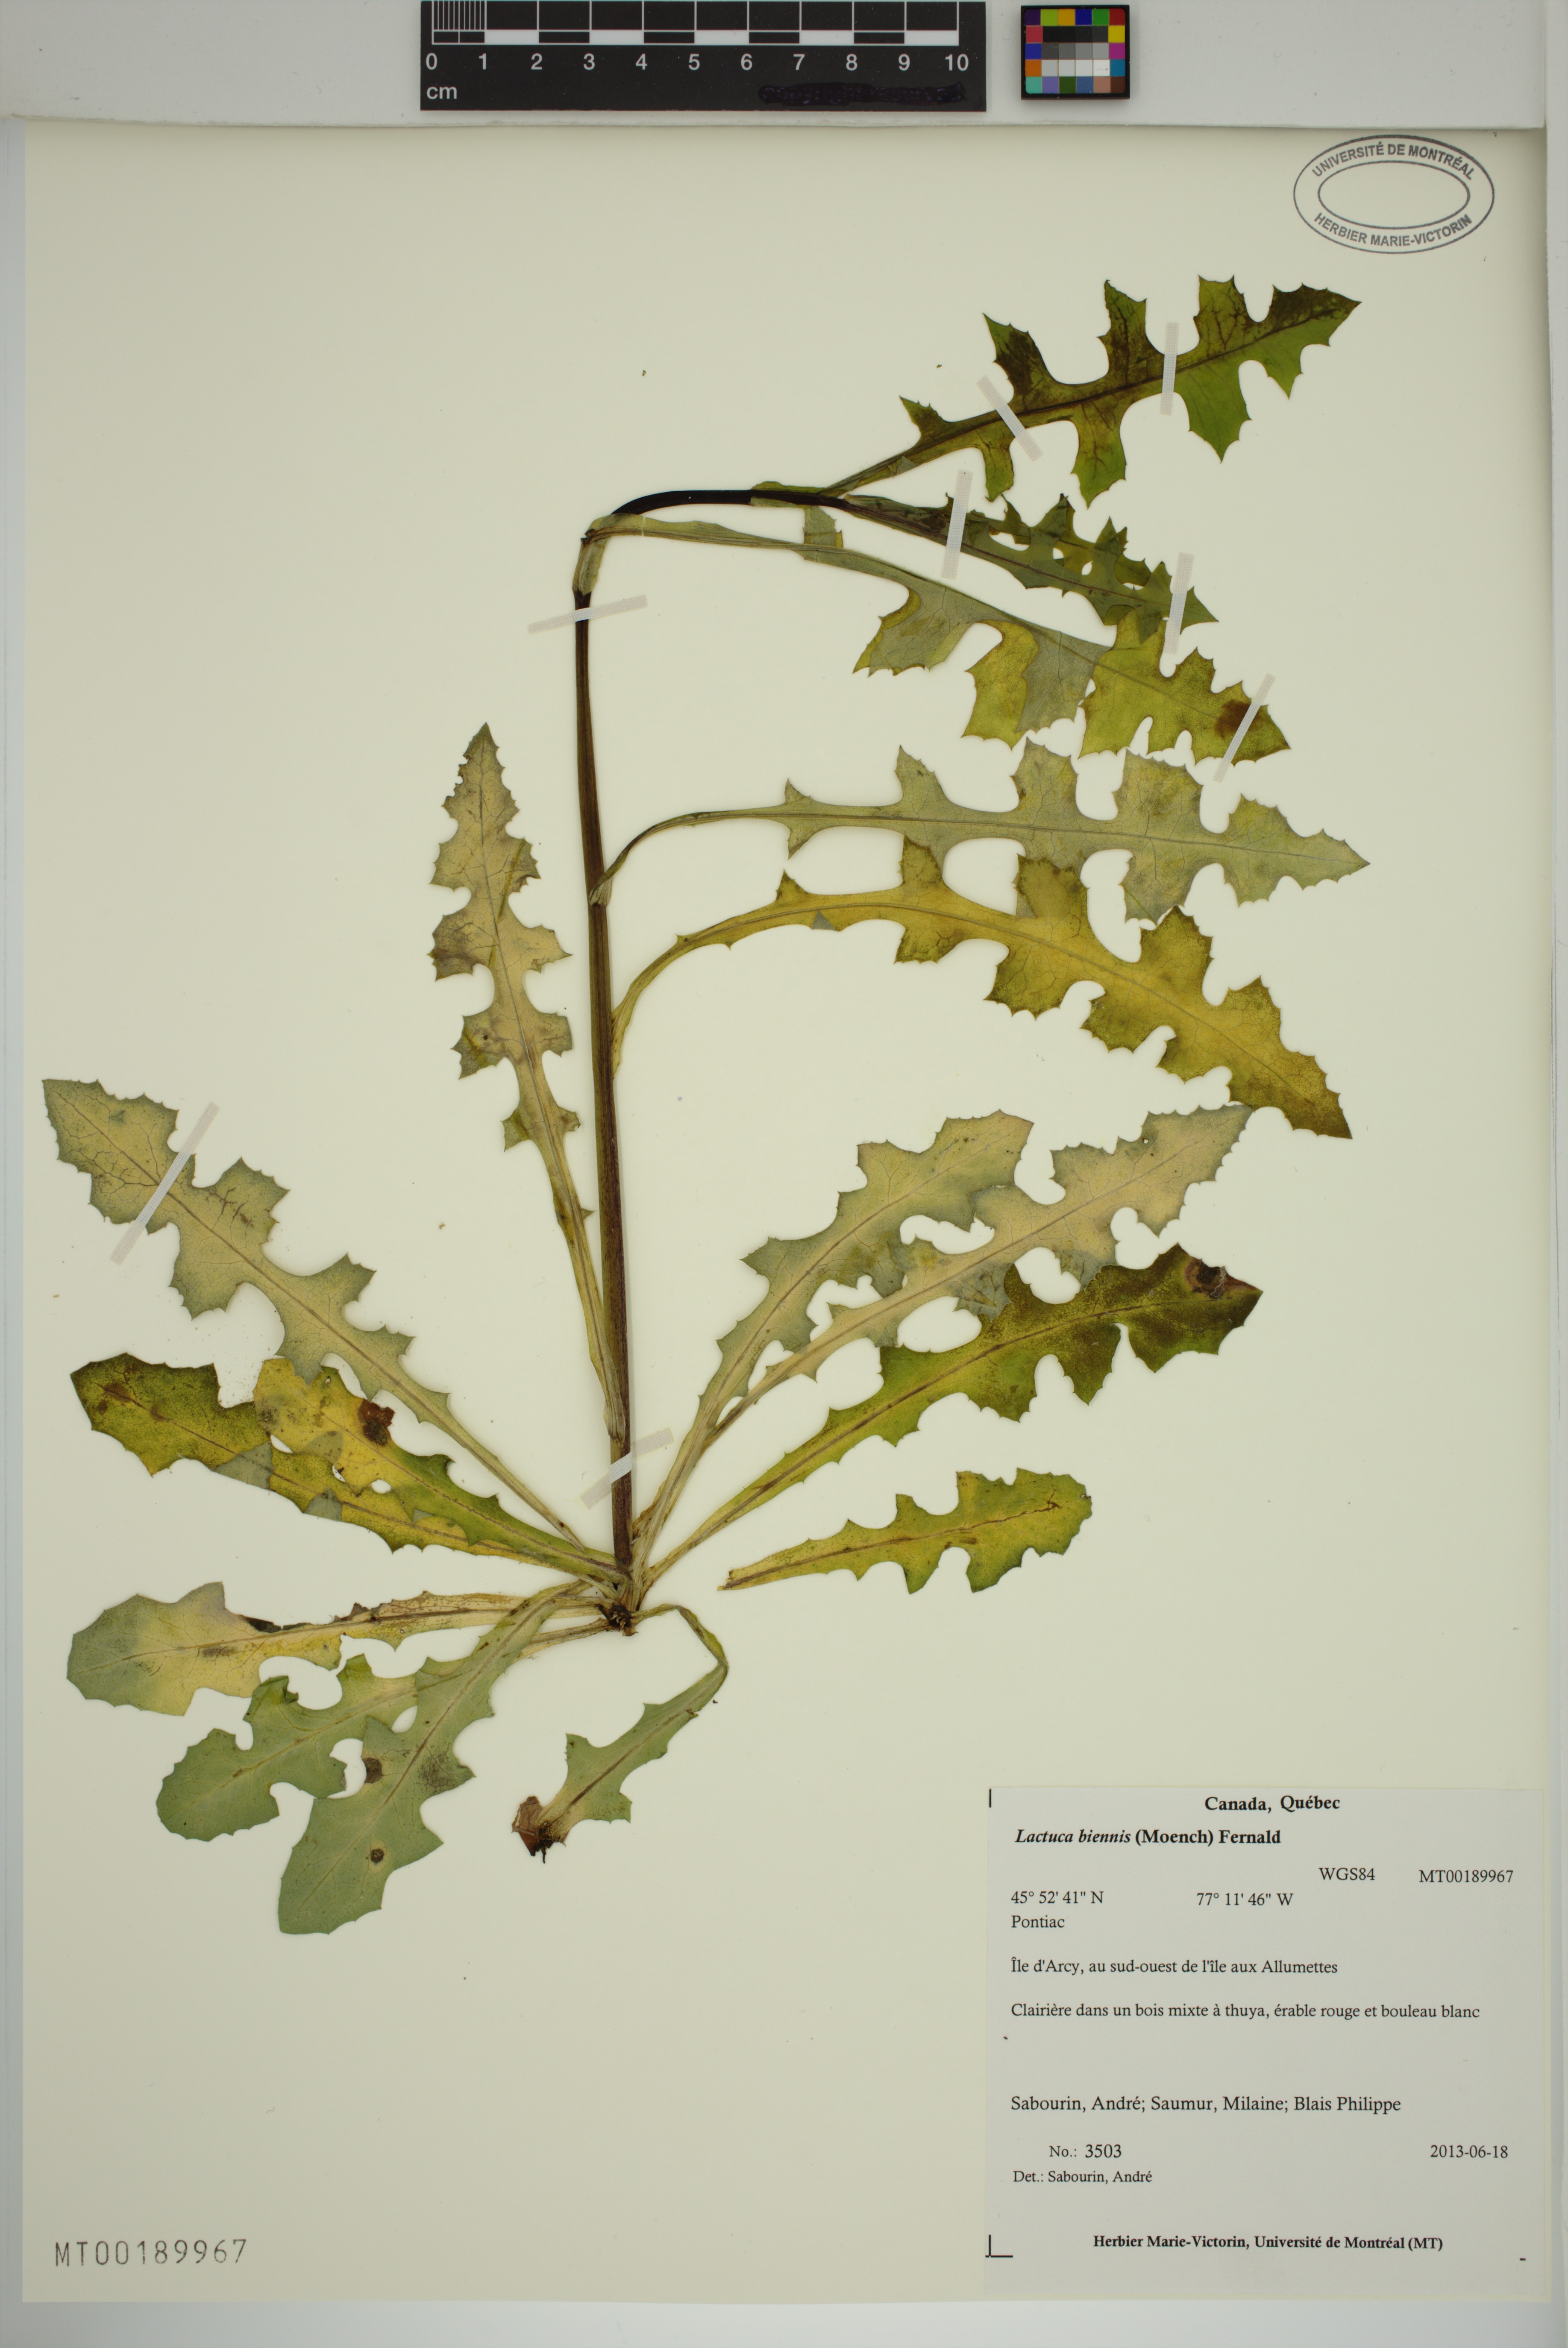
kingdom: Plantae
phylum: Tracheophyta
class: Magnoliopsida
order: Asterales
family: Asteraceae
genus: Lactuca
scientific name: Lactuca biennis
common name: Blue wood lettuce
